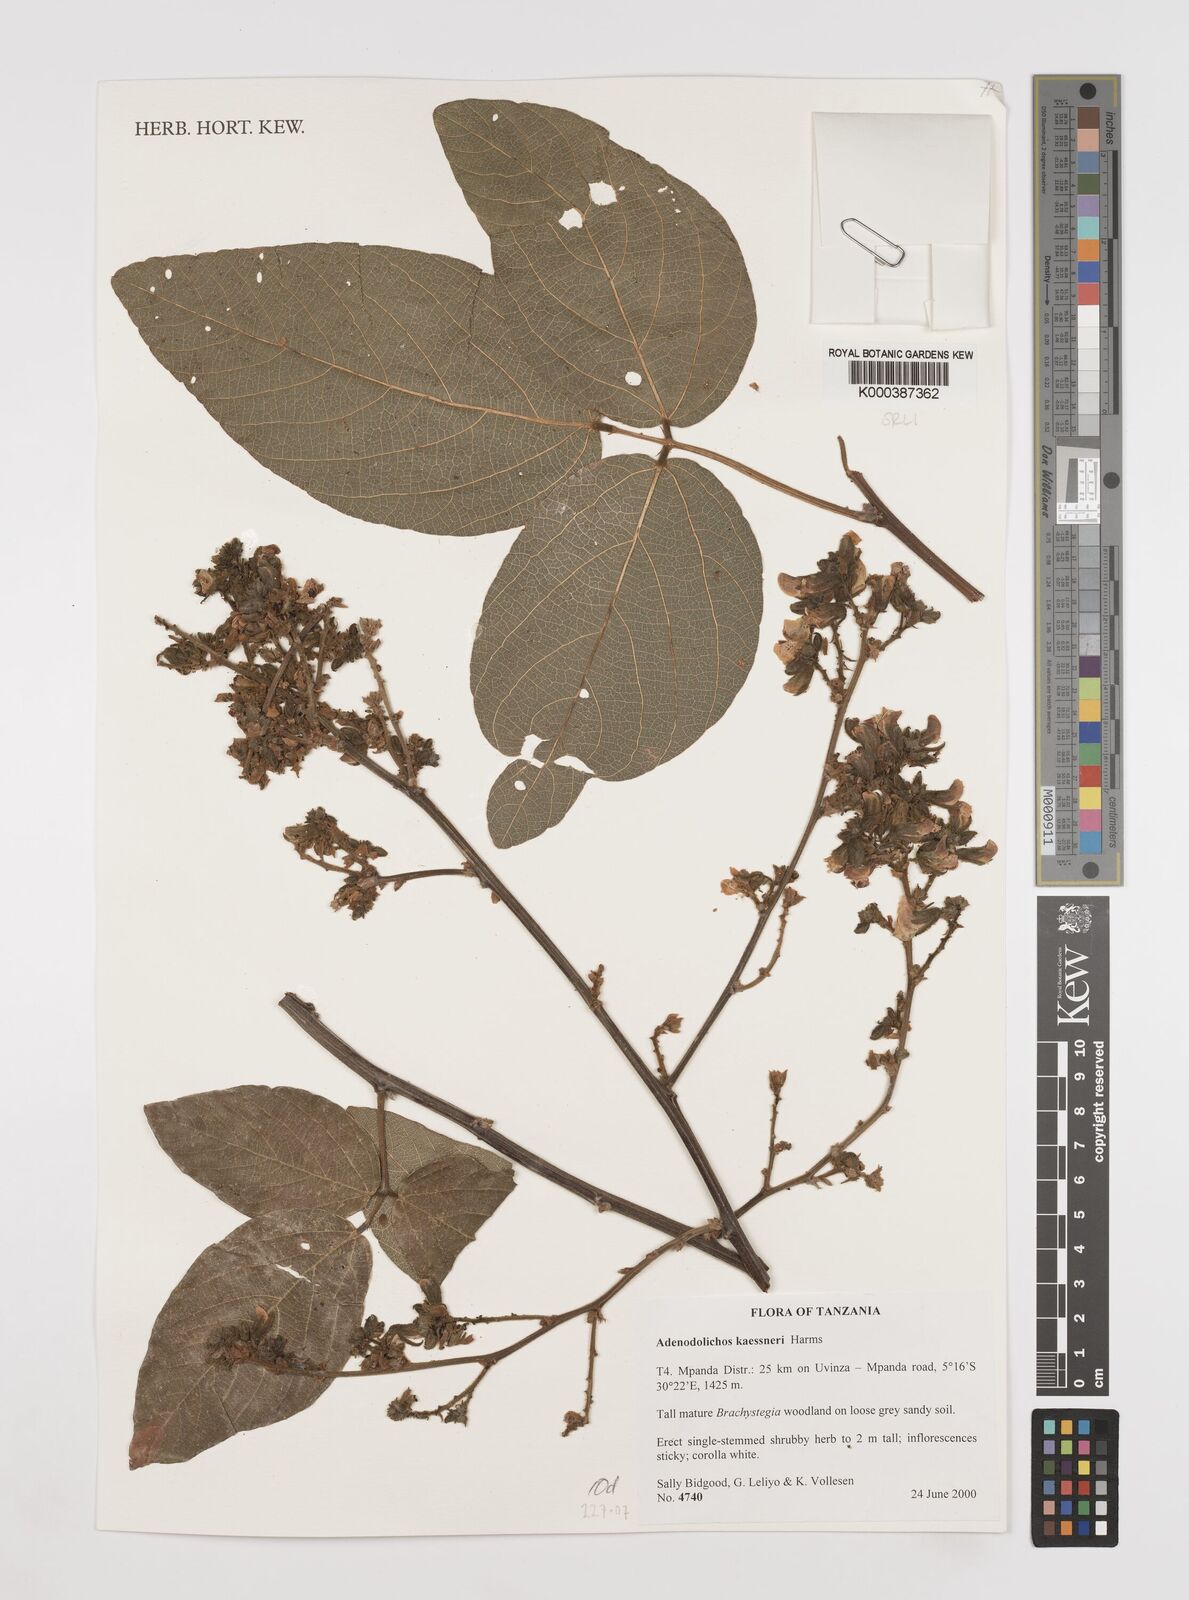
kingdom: Plantae
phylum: Tracheophyta
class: Magnoliopsida
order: Fabales
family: Fabaceae
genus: Adenodolichos
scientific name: Adenodolichos kaessneri
